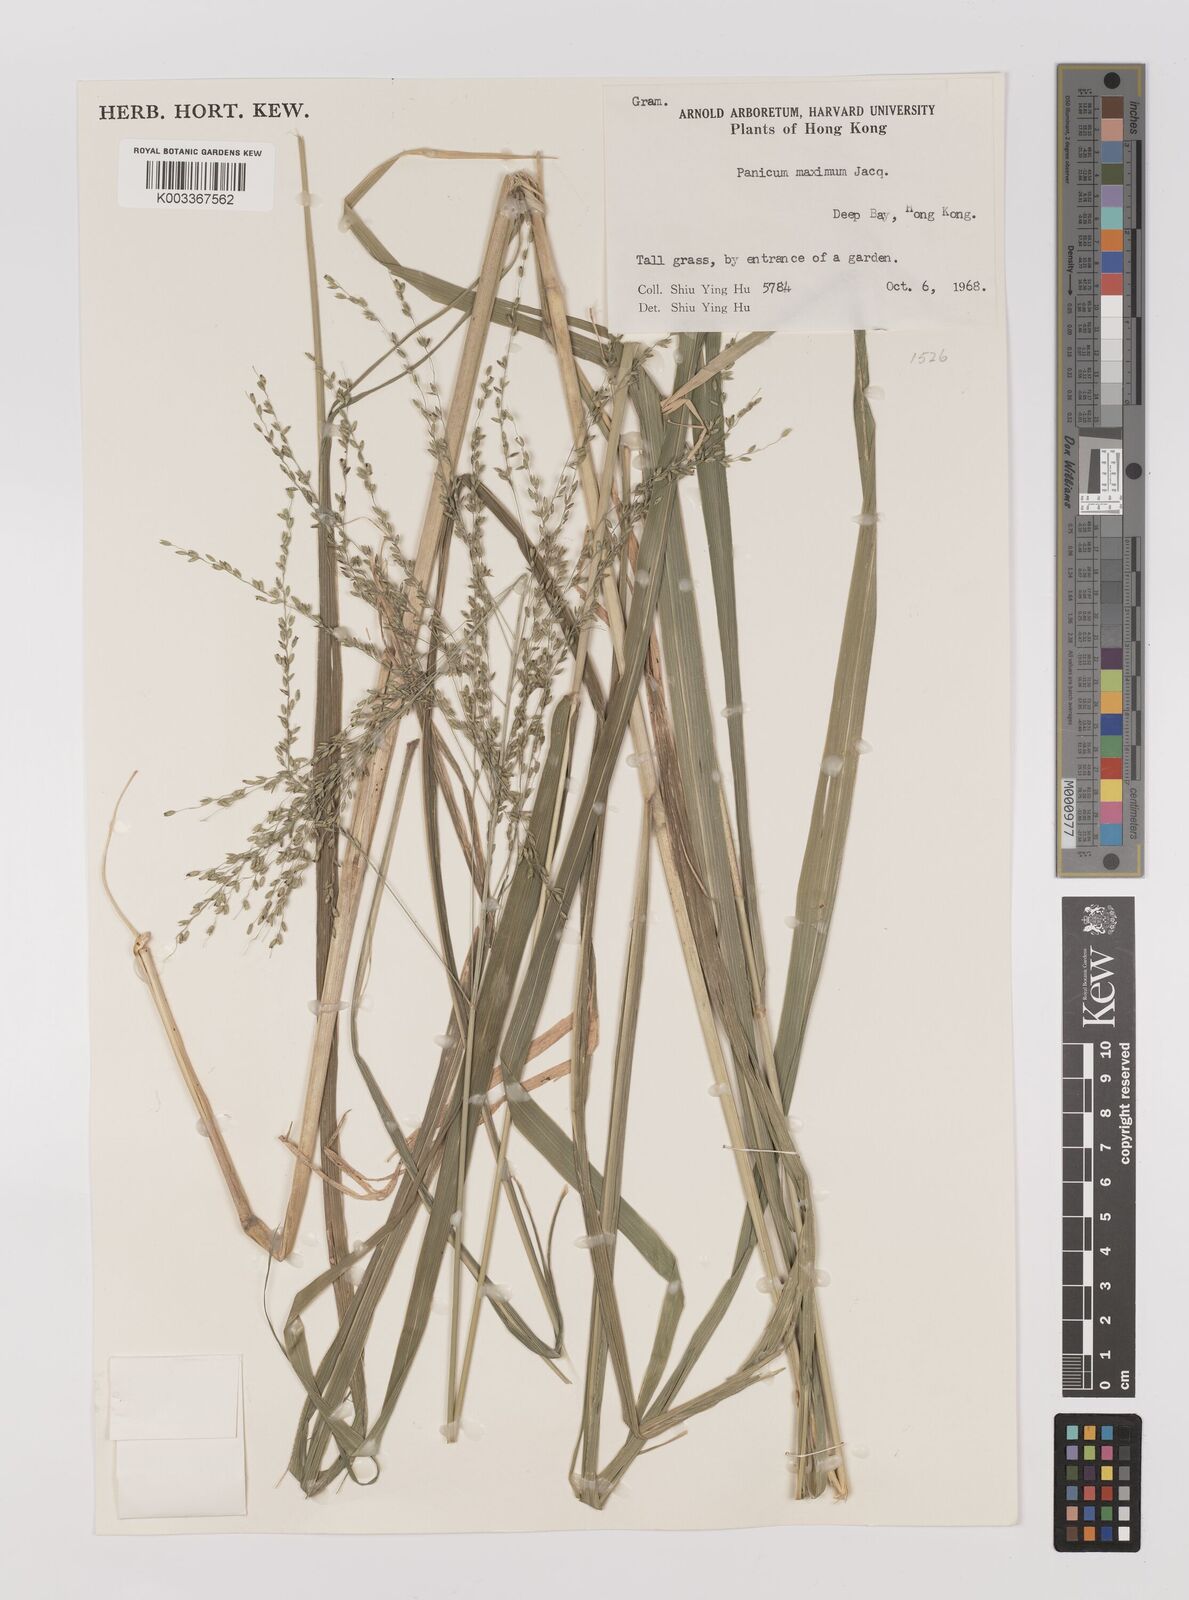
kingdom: Plantae
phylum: Tracheophyta
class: Liliopsida
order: Poales
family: Poaceae
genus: Megathyrsus
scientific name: Megathyrsus maximus
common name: Guineagrass
